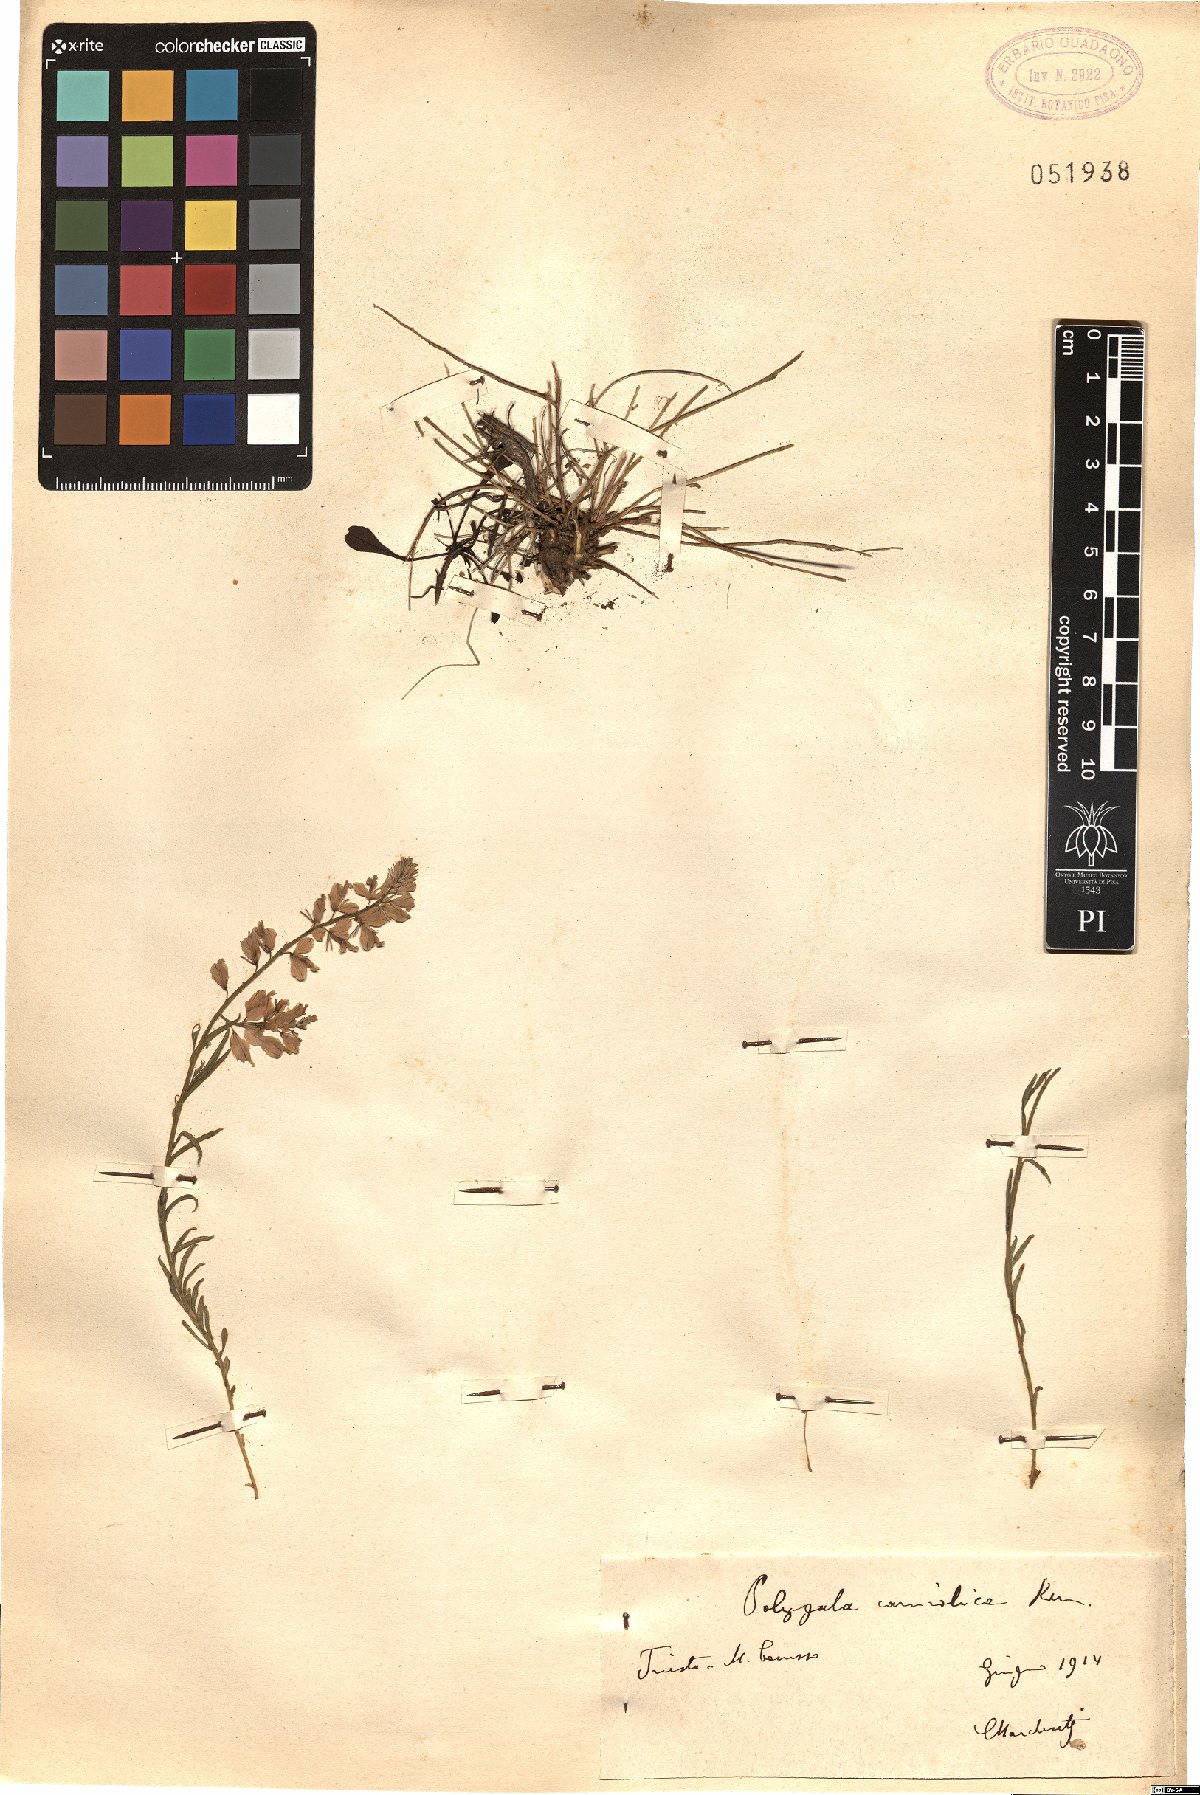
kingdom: Plantae
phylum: Tracheophyta
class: Magnoliopsida
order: Fabales
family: Polygalaceae
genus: Polygala
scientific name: Polygala forojulensis
